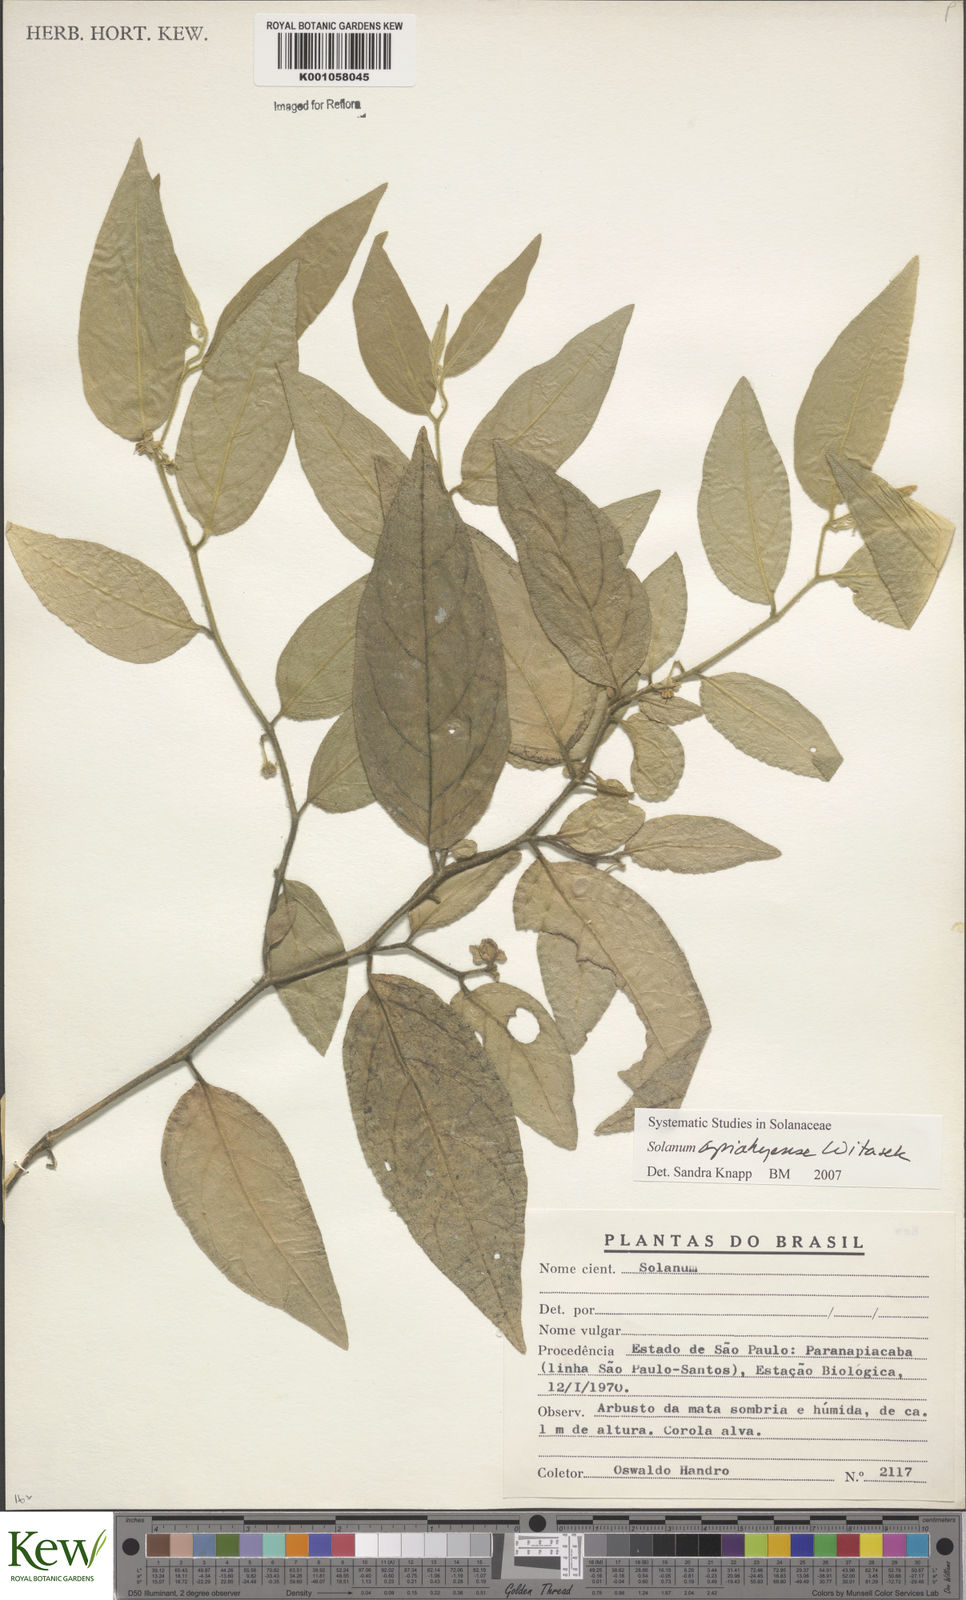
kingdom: Plantae
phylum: Tracheophyta
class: Magnoliopsida
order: Solanales
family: Solanaceae
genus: Solanum
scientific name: Solanum apiahyense
